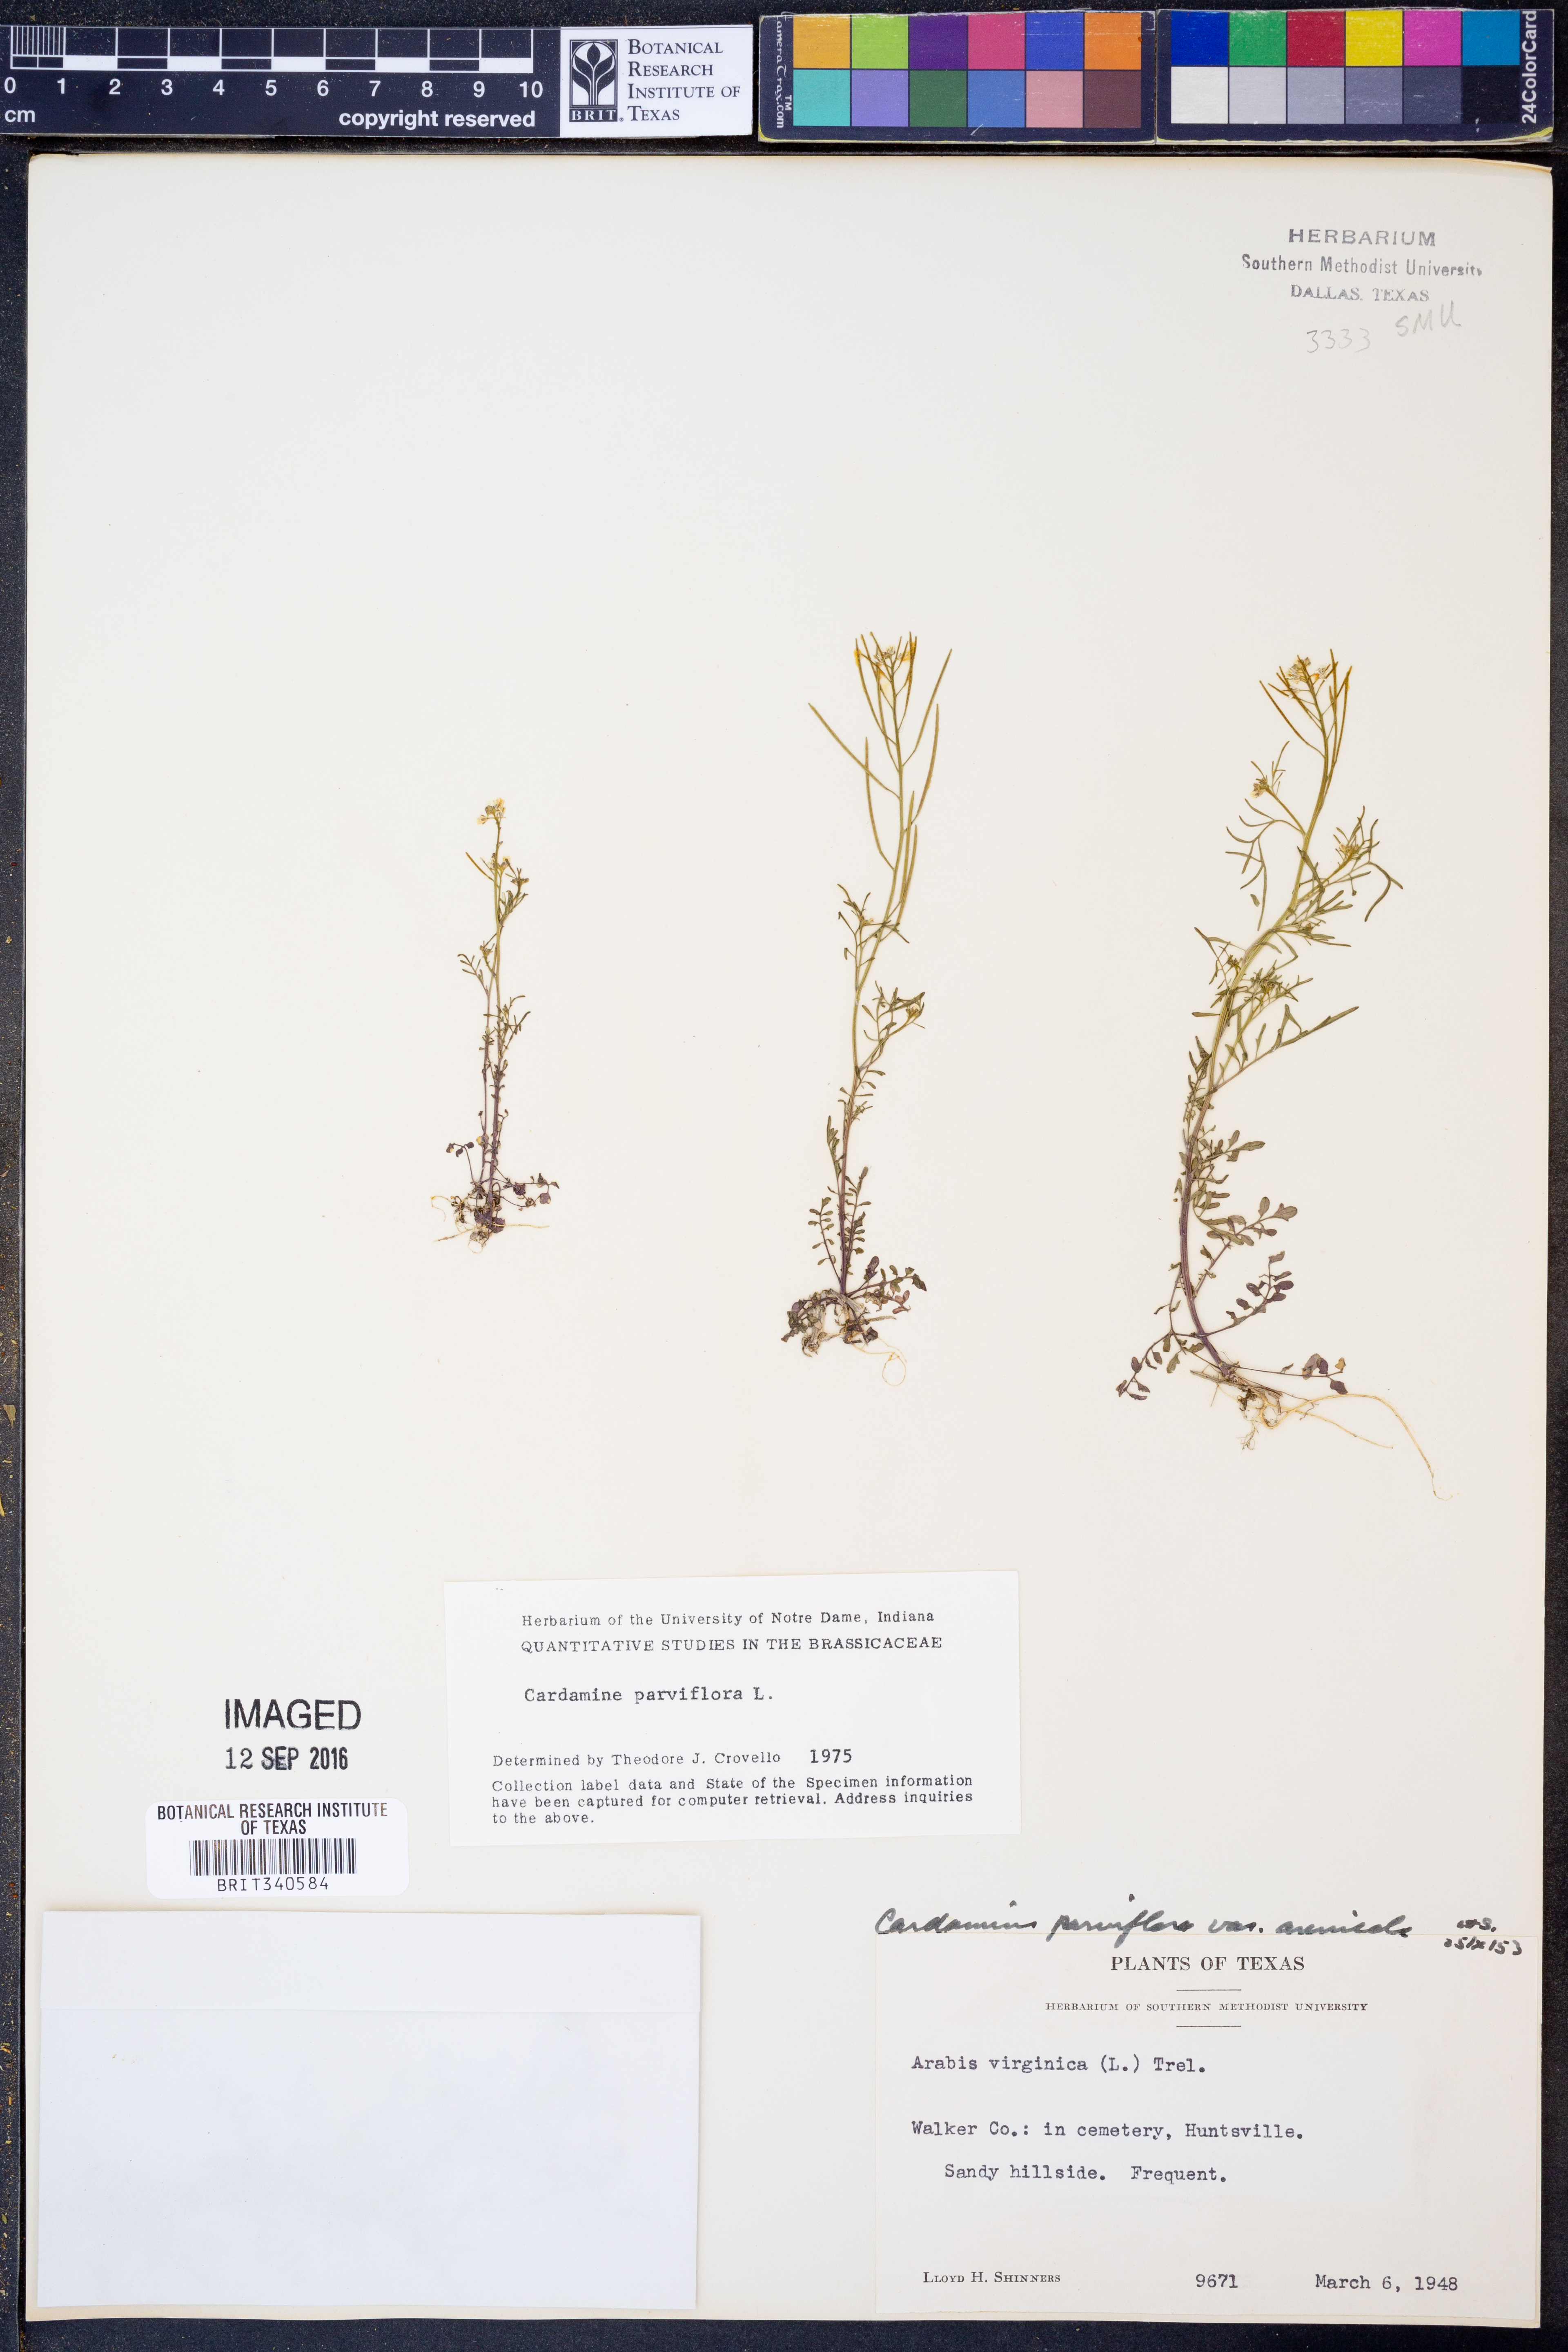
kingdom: Plantae
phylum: Tracheophyta
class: Magnoliopsida
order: Brassicales
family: Brassicaceae
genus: Cardamine
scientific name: Cardamine parviflora
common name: Sand bittercress
